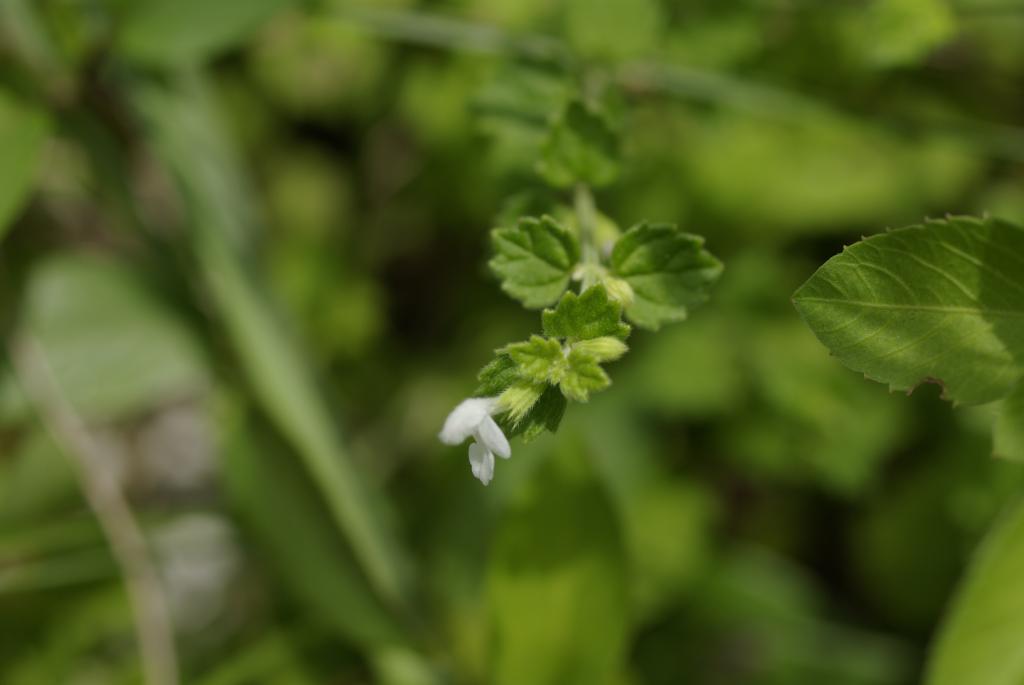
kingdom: Plantae
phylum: Tracheophyta
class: Magnoliopsida
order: Lamiales
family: Lamiaceae
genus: Leucas
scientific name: Leucas chinensis
